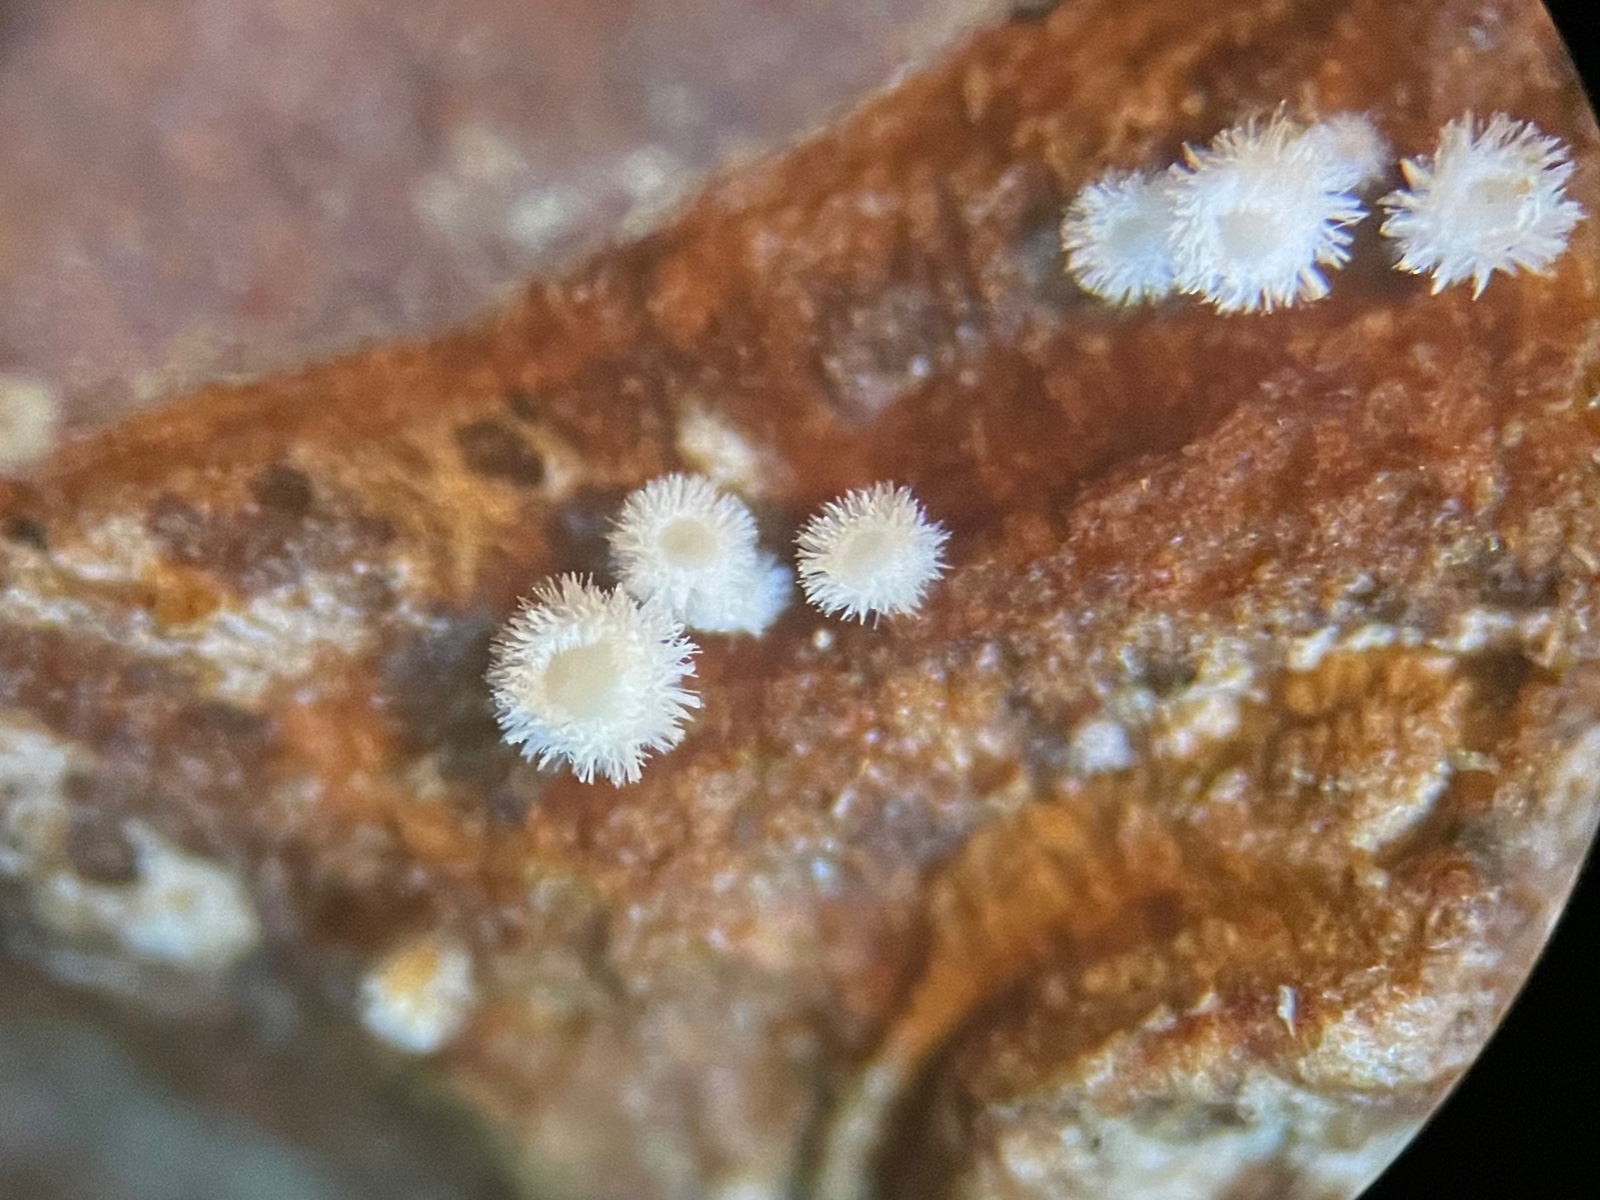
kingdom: Fungi
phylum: Ascomycota
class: Leotiomycetes
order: Helotiales
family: Lachnaceae
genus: Lachnum
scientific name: Lachnum
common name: frynseskive
